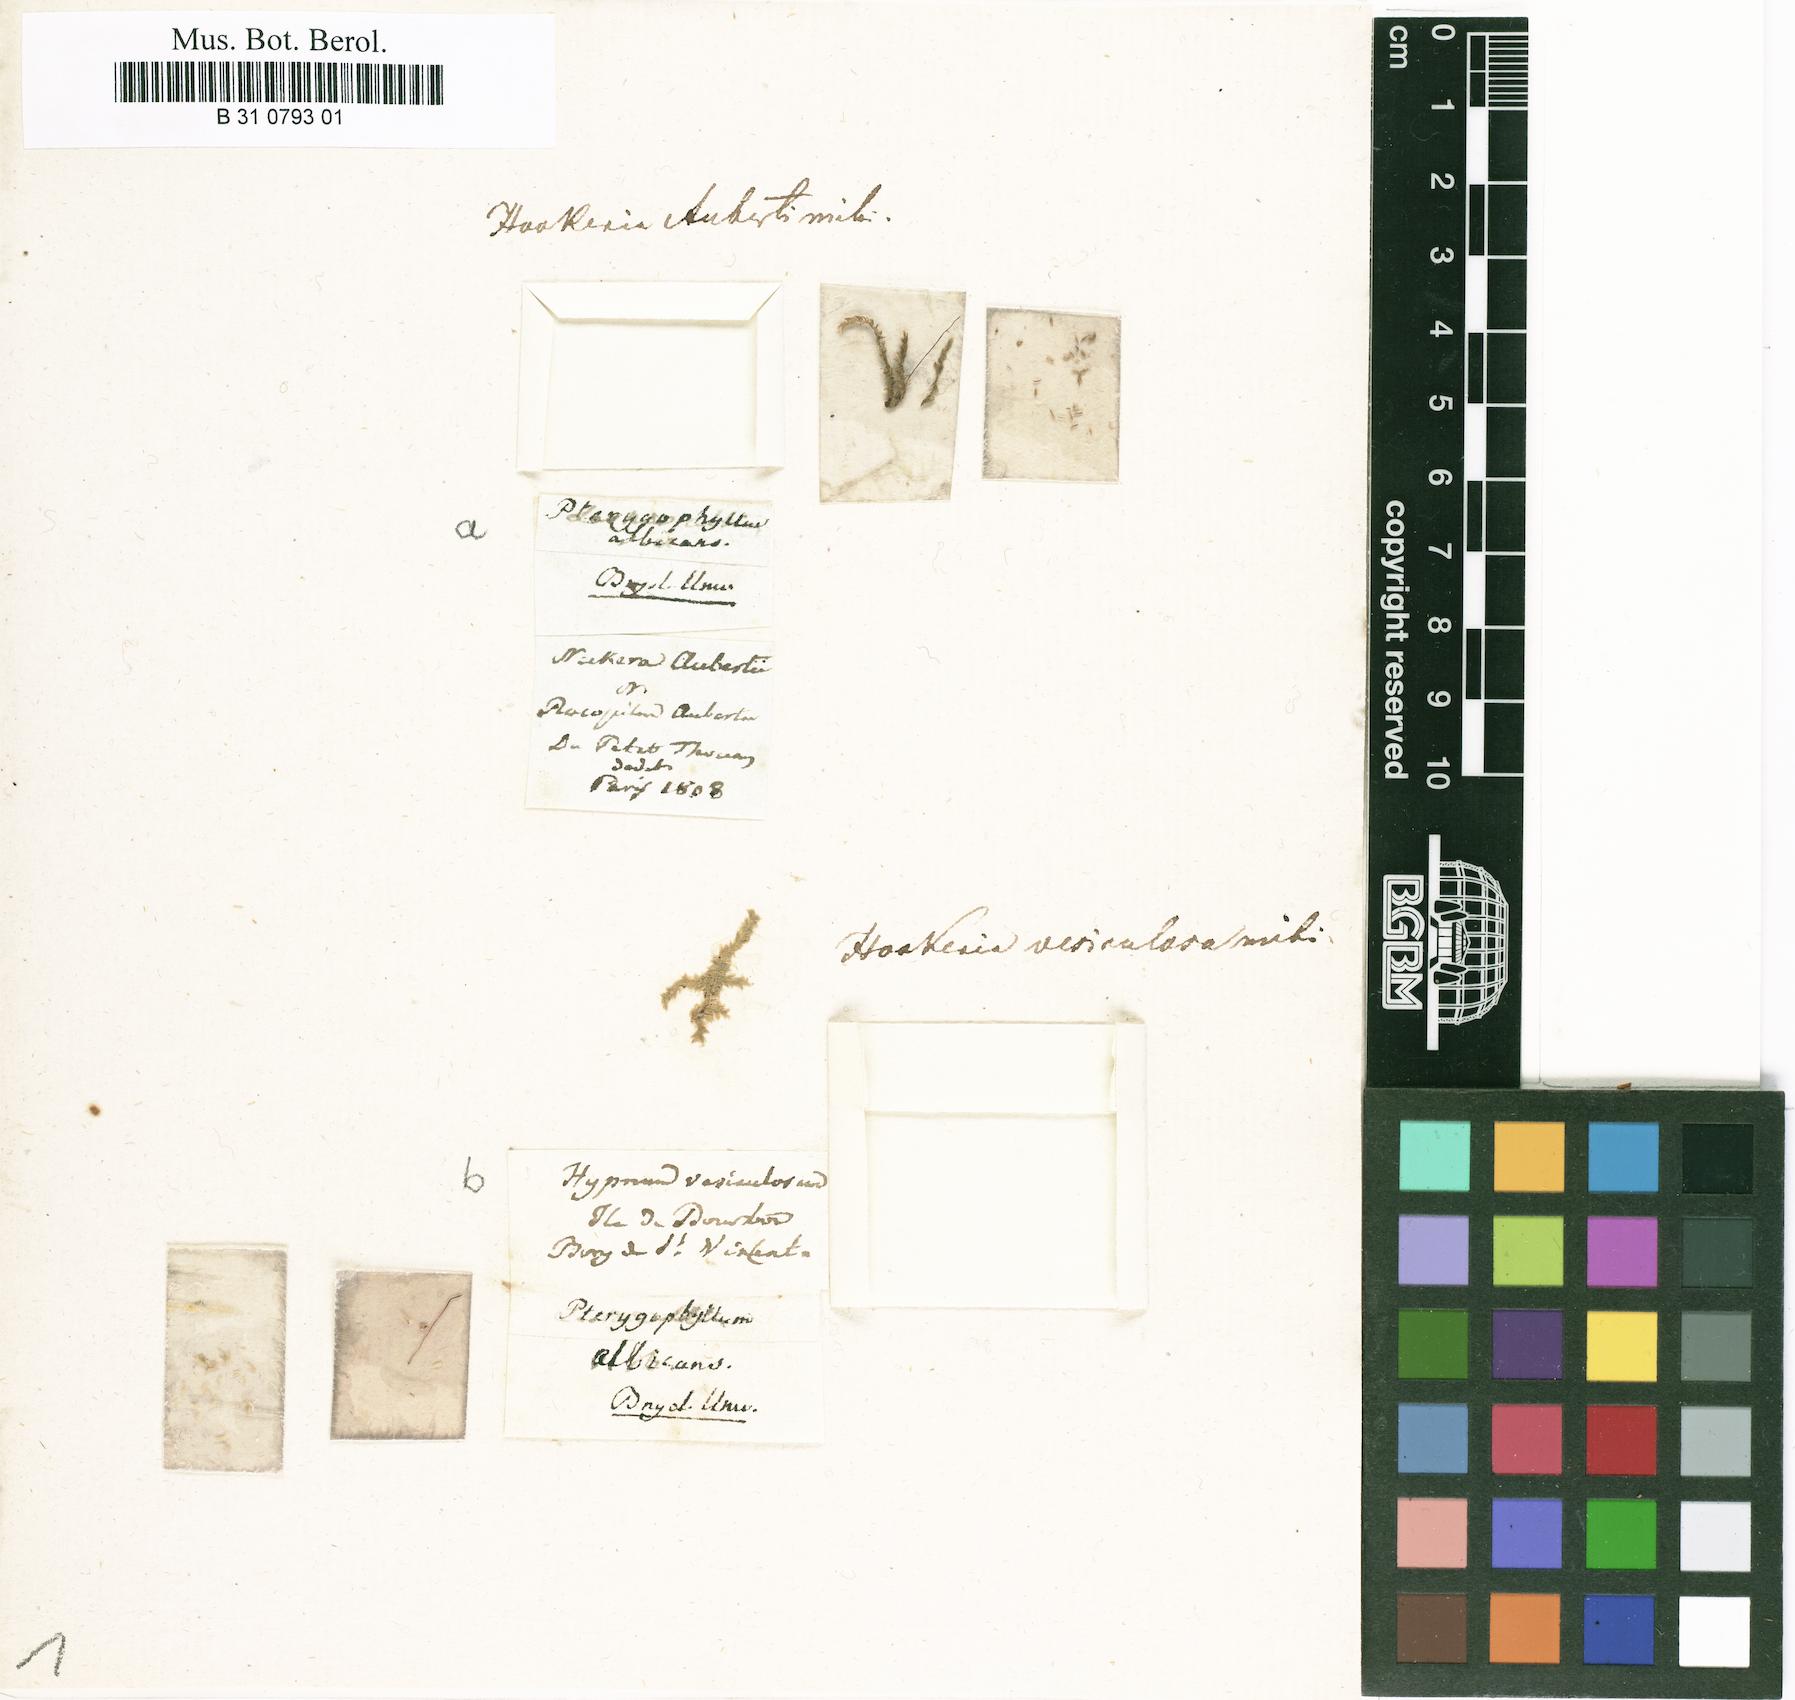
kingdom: Plantae
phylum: Bryophyta
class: Bryopsida
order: Hookeriales
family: Pilotrichaceae
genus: Cyclodictyon
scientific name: Cyclodictyon albicans
